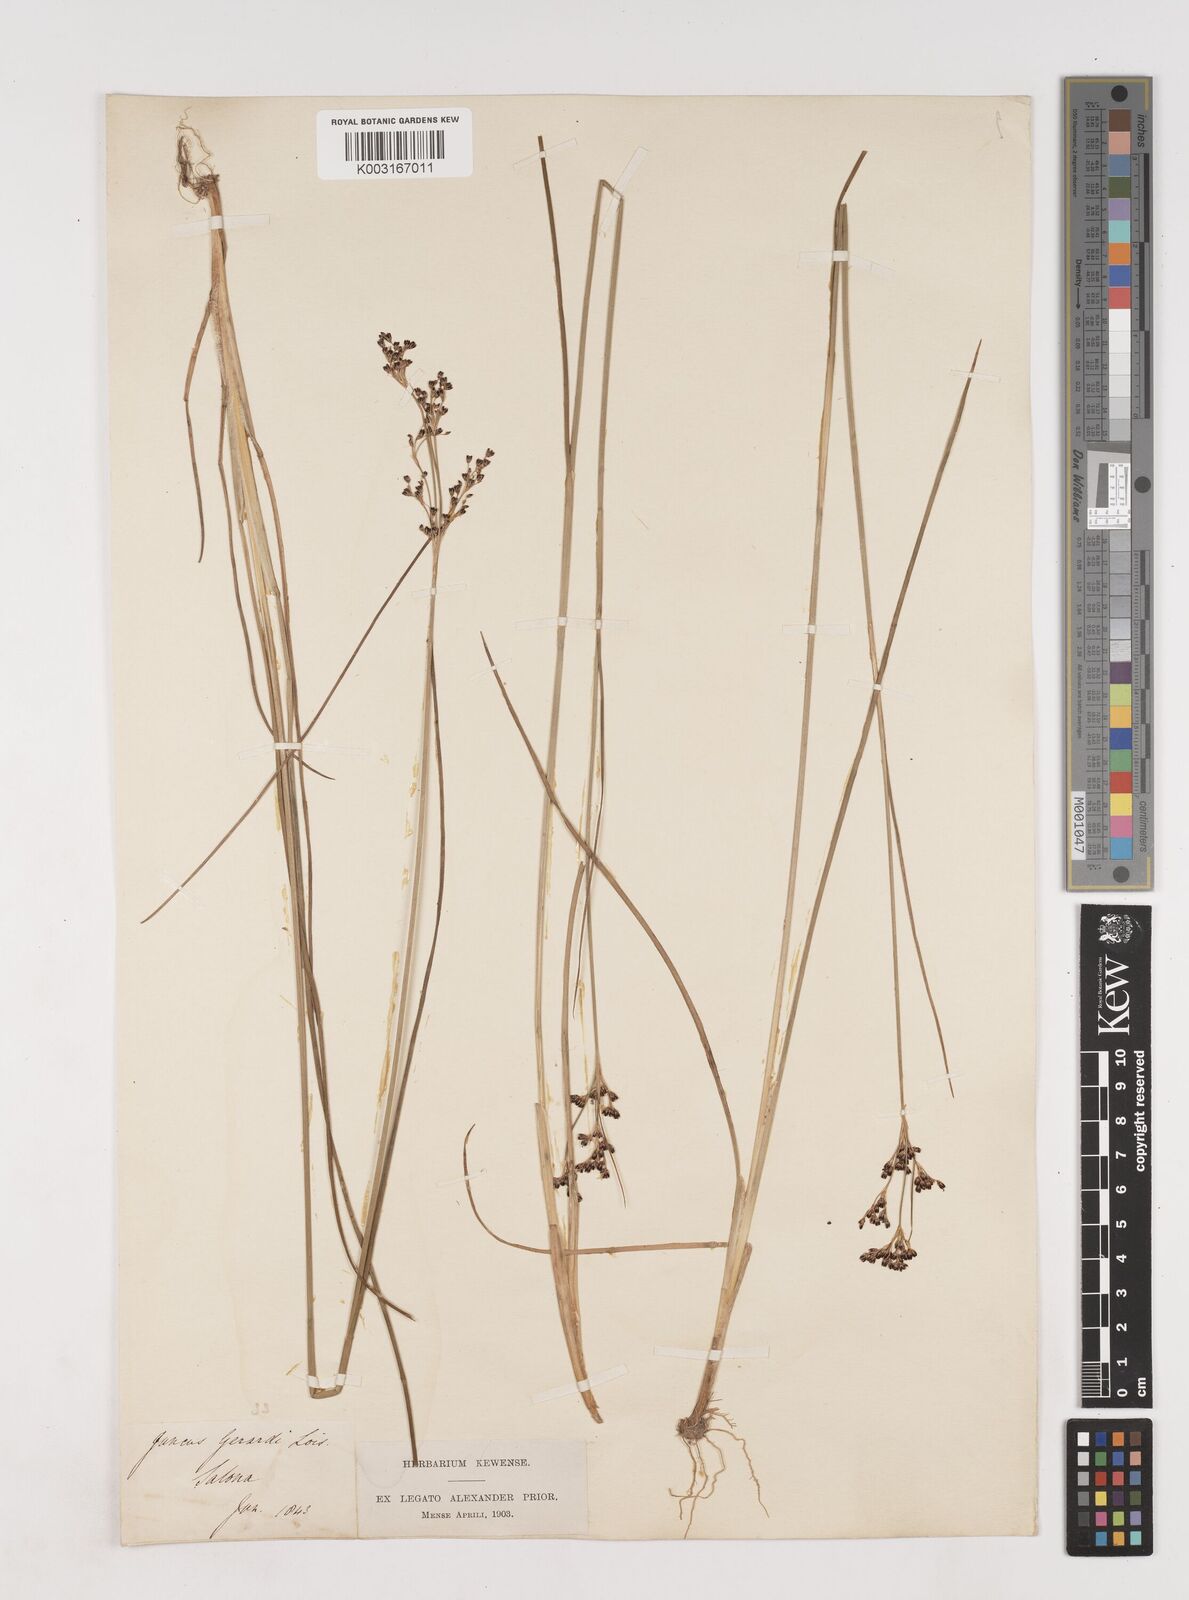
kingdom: Plantae
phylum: Tracheophyta
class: Liliopsida
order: Poales
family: Juncaceae
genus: Juncus
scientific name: Juncus gerardi
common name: Saltmarsh rush
